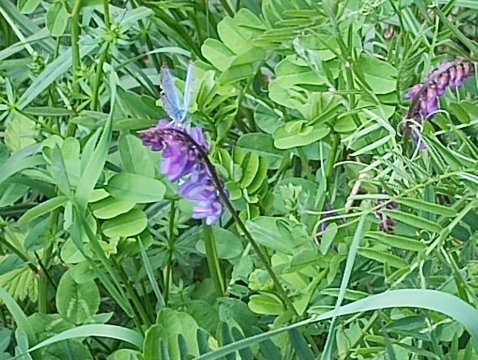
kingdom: Animalia
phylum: Arthropoda
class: Insecta
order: Lepidoptera
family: Lycaenidae
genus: Glaucopsyche
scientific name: Glaucopsyche lygdamus
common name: Silvery Blue
